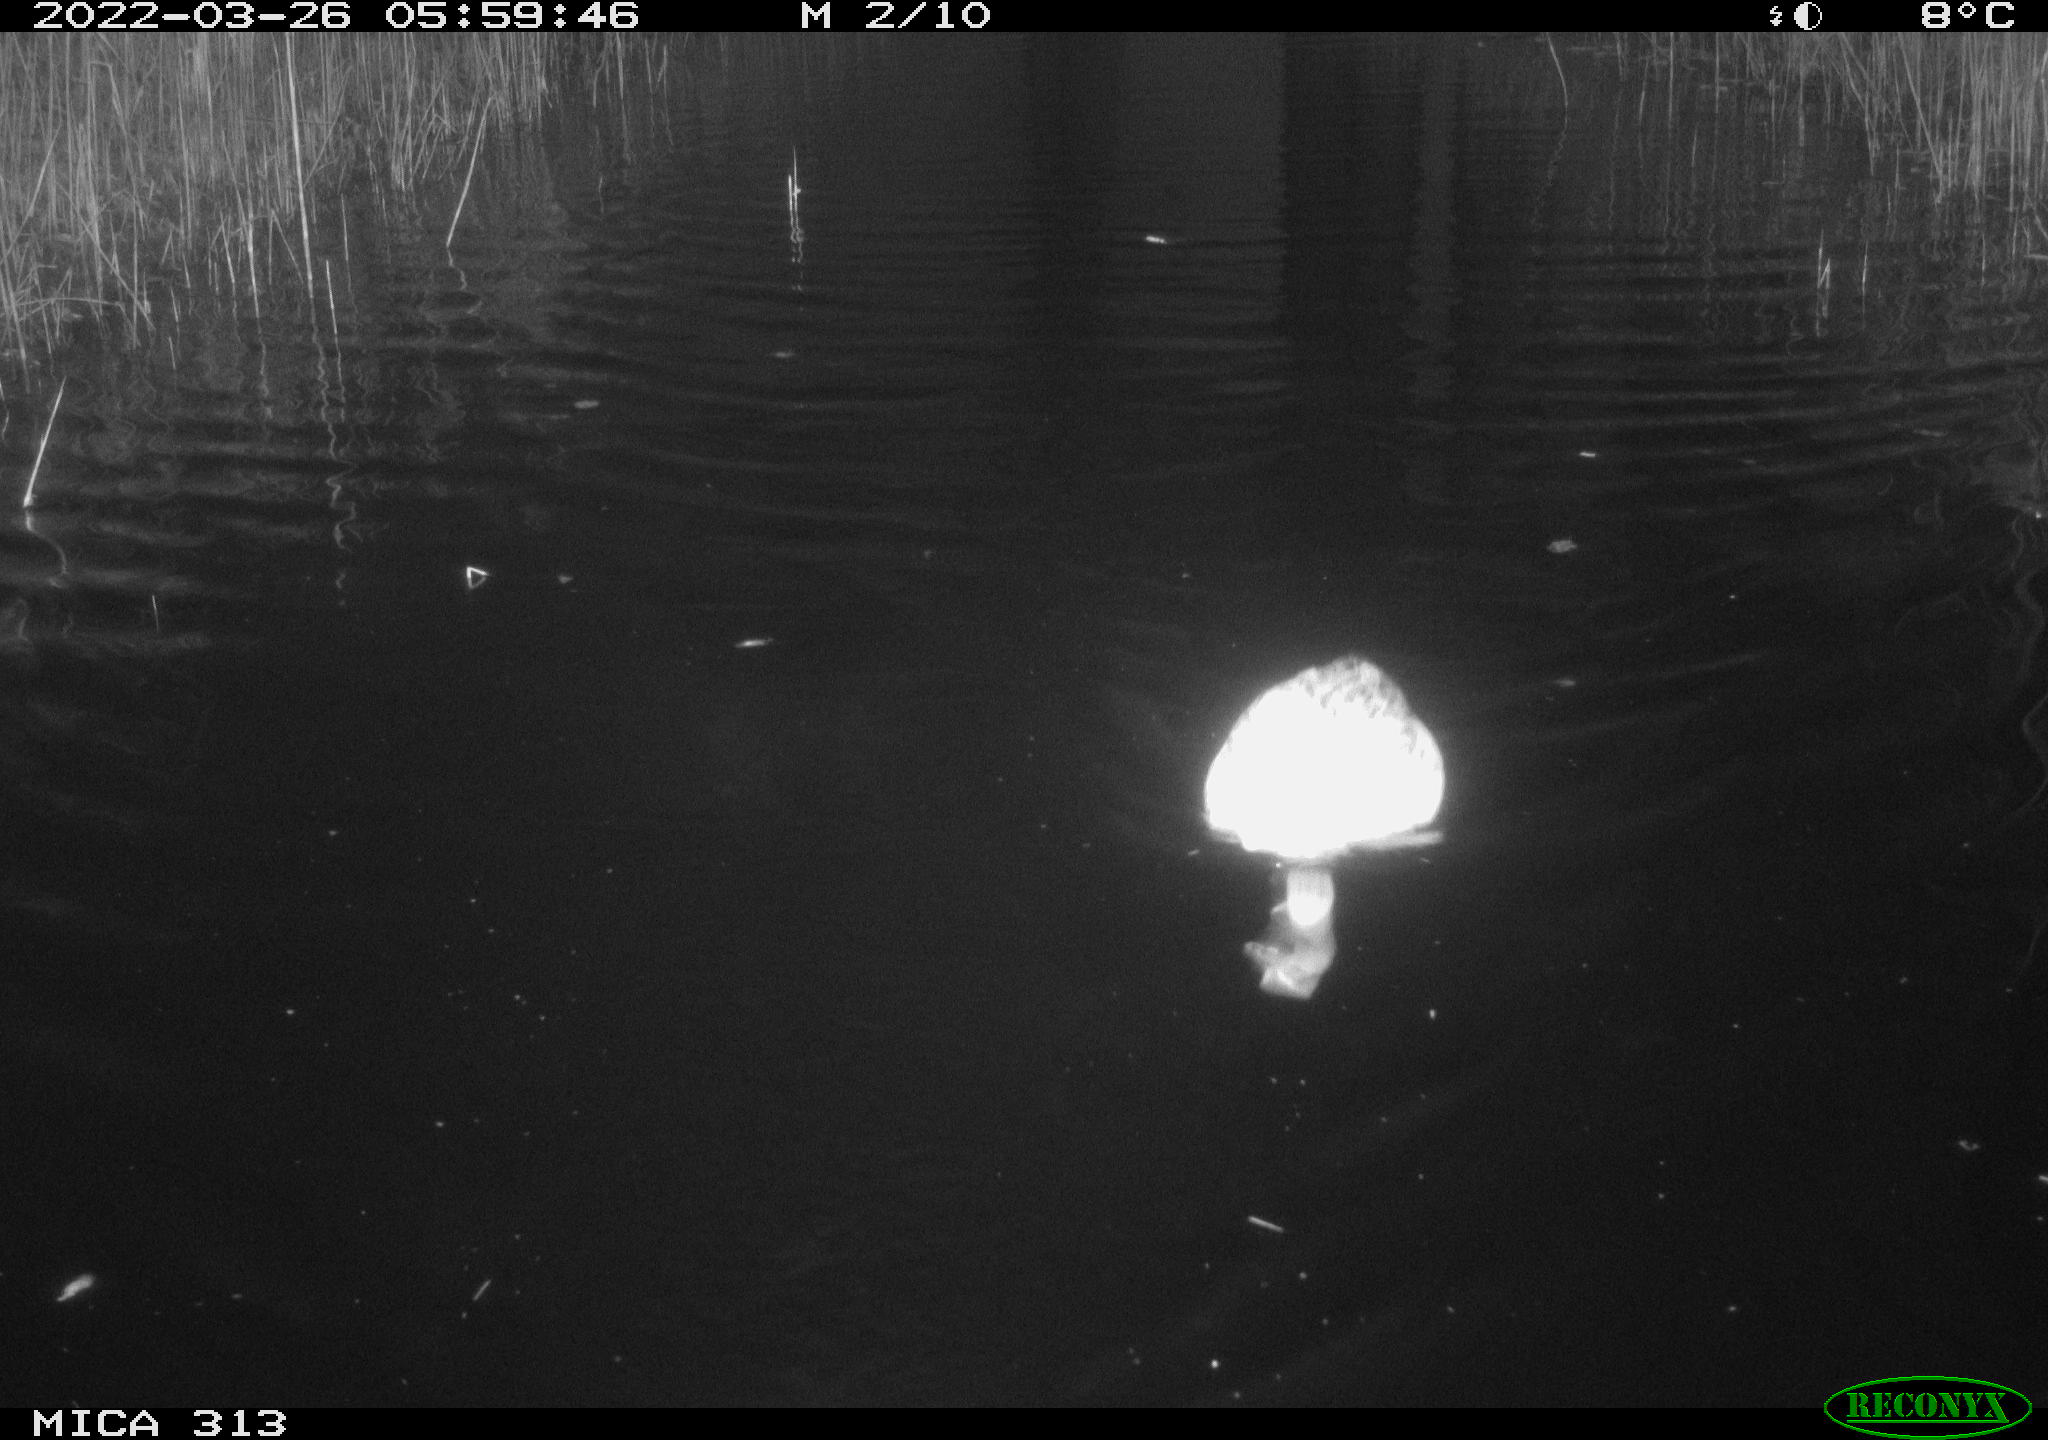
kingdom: Animalia
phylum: Chordata
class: Aves
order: Anseriformes
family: Anatidae
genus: Anas
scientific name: Anas platyrhynchos
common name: Mallard
